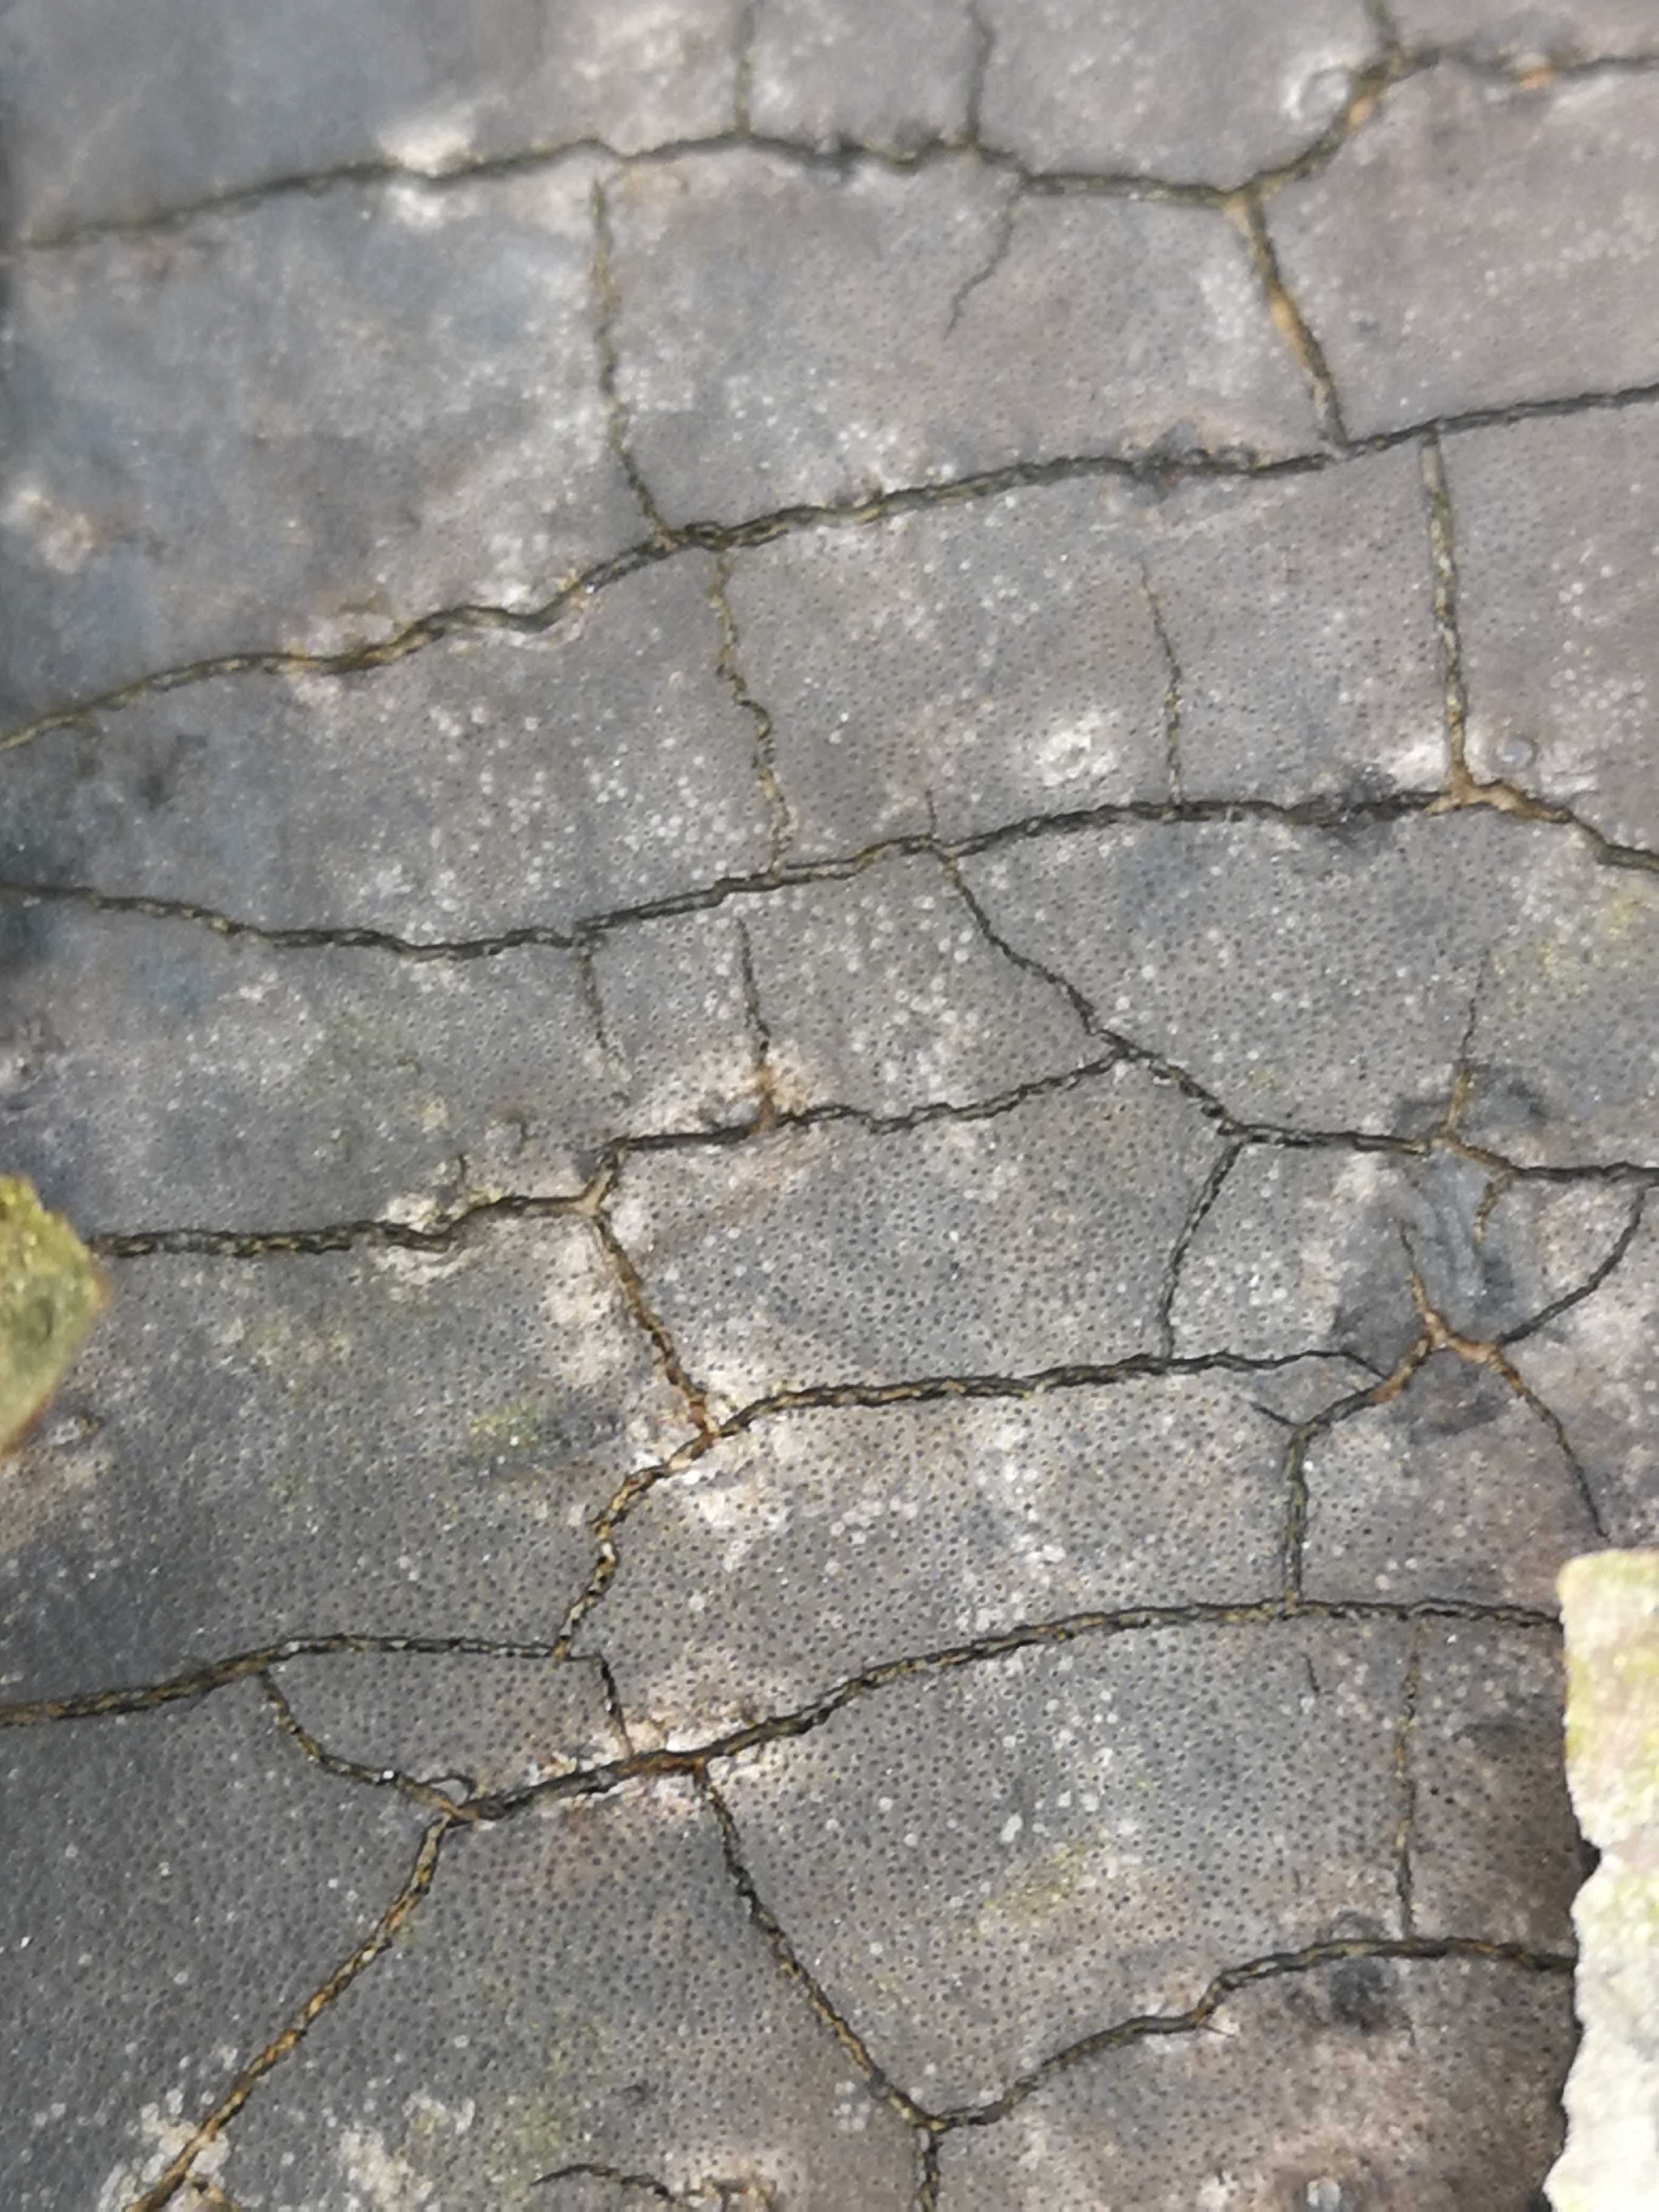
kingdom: Fungi
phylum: Ascomycota
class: Sordariomycetes
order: Xylariales
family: Diatrypaceae
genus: Diatrype
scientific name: Diatrype
